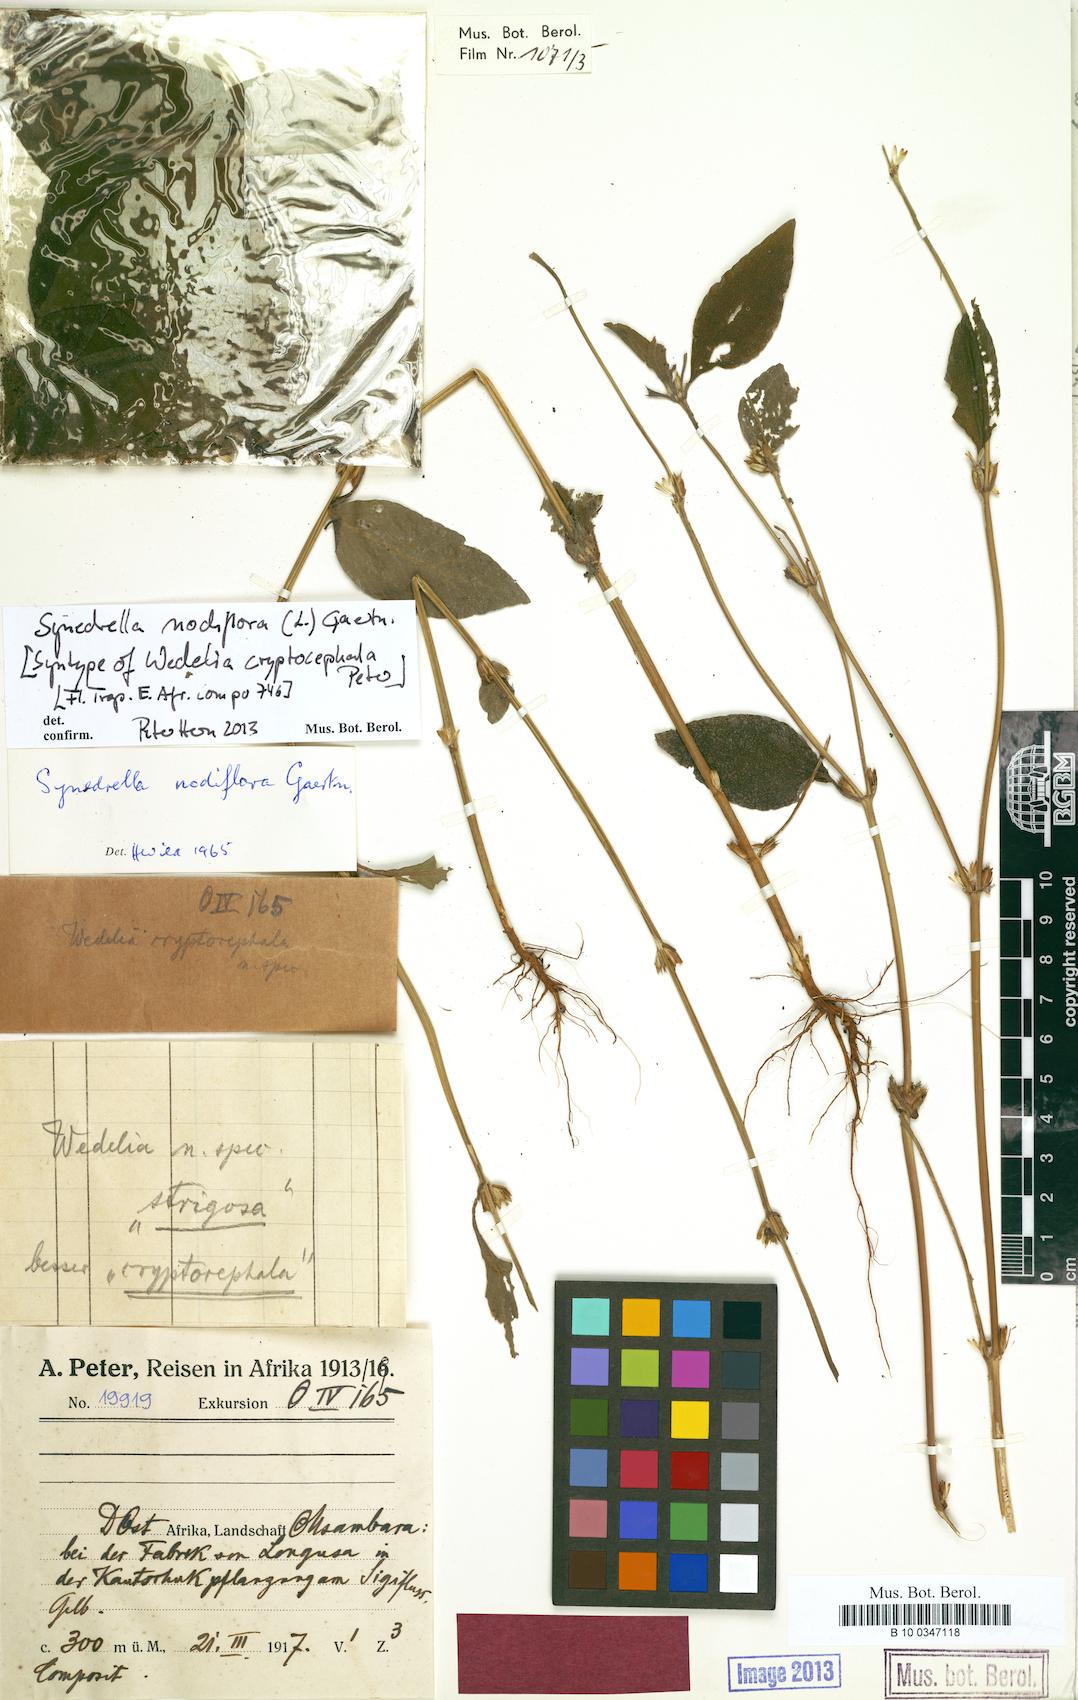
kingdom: Plantae
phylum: Tracheophyta
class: Magnoliopsida
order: Asterales
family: Asteraceae
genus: Synedrella
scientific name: Synedrella nodiflora
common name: Nodeweed
